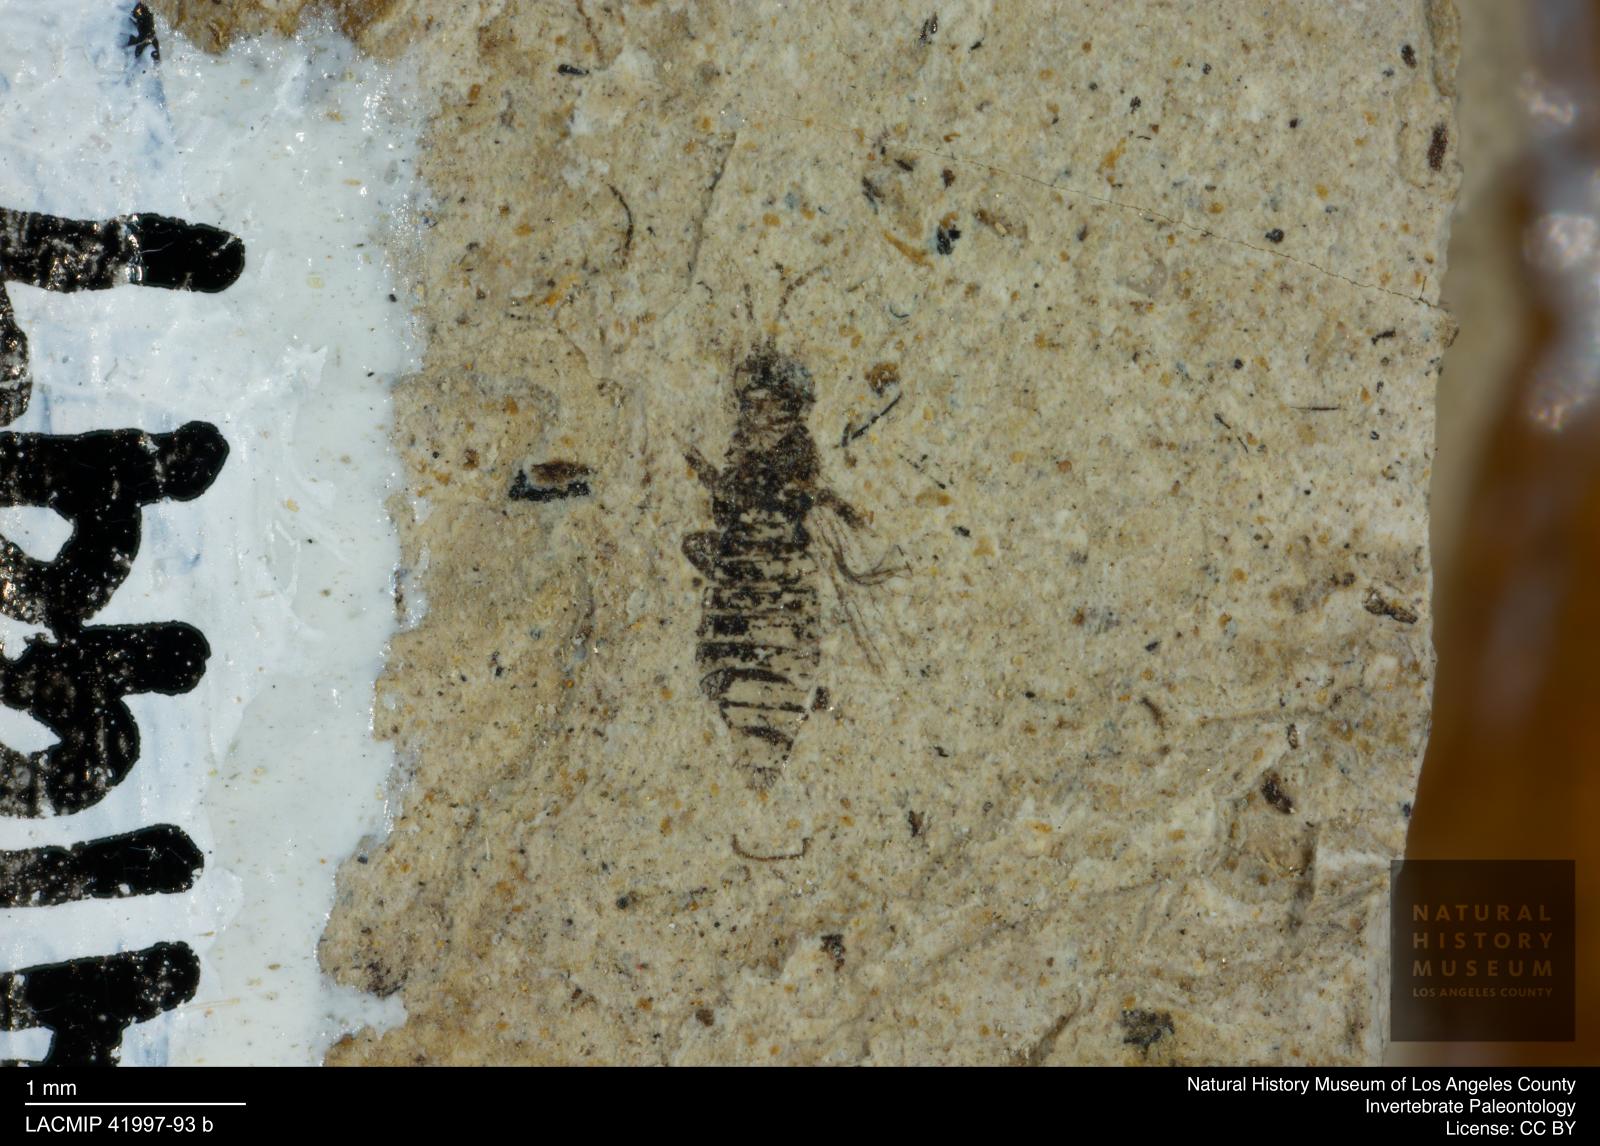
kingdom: Animalia
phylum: Arthropoda
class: Insecta
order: Thysanoptera
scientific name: Thysanoptera
